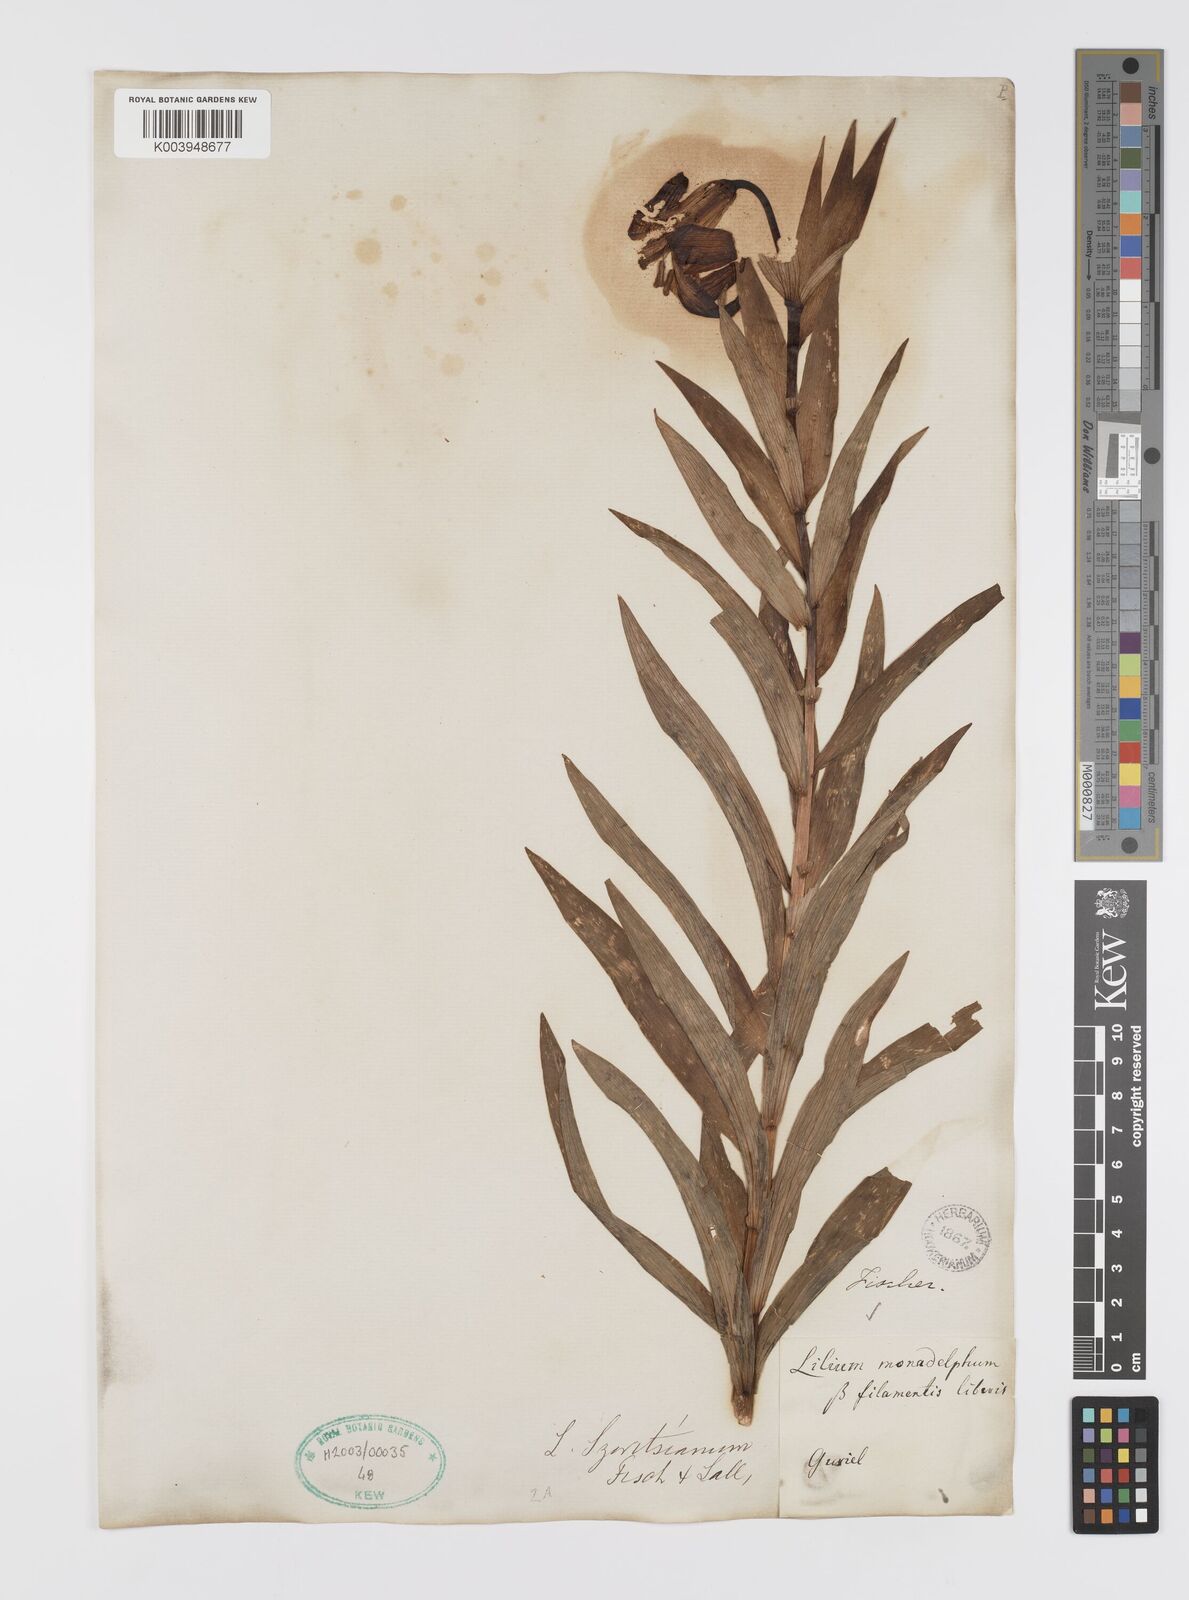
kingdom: Plantae
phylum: Tracheophyta
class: Liliopsida
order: Liliales
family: Liliaceae
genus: Lilium
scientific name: Lilium armenum
